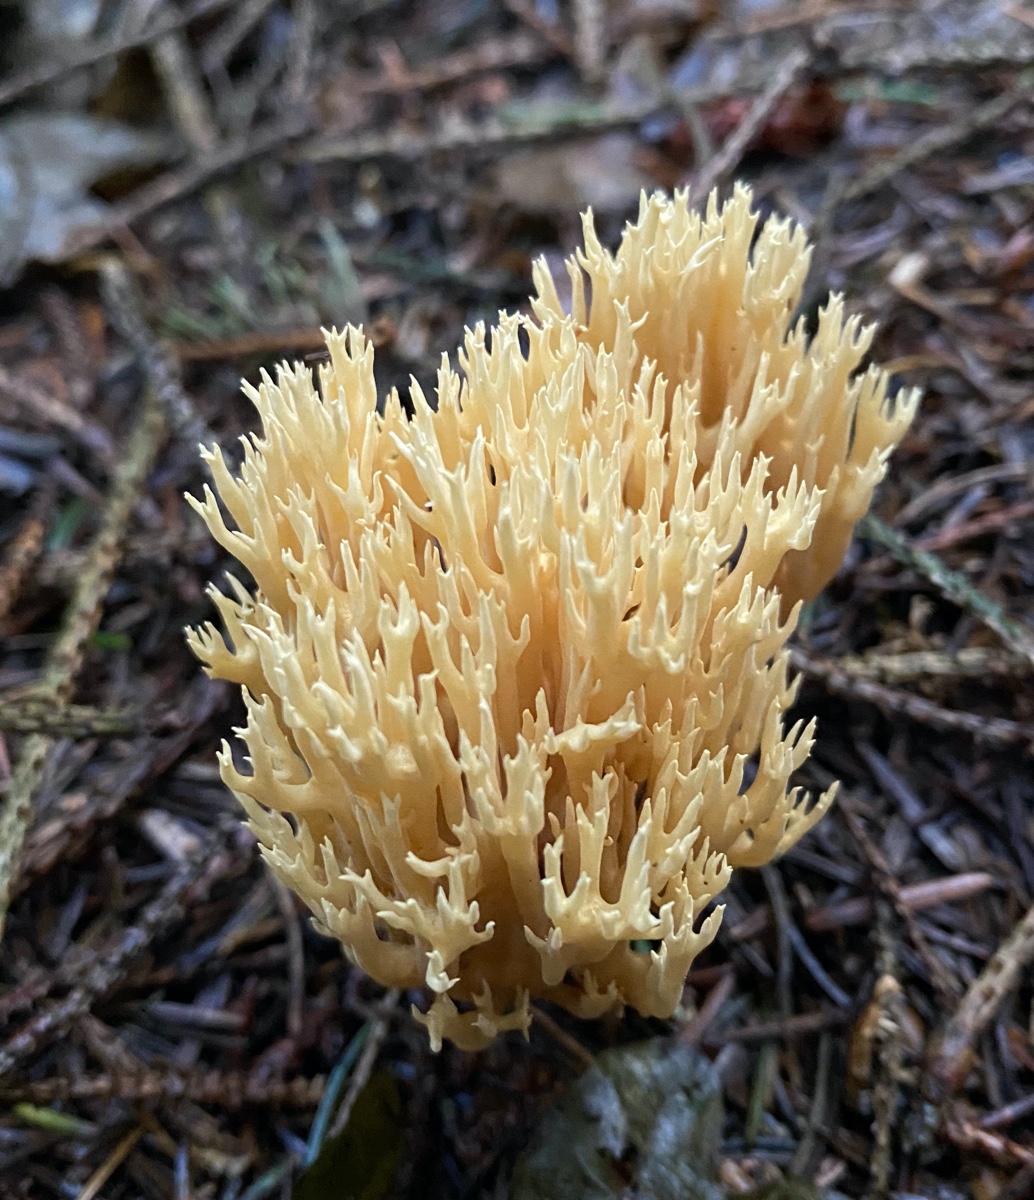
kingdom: Fungi
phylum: Basidiomycota
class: Agaricomycetes
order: Gomphales
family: Gomphaceae
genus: Phaeoclavulina
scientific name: Phaeoclavulina eumorpha
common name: gran-koralsvamp
